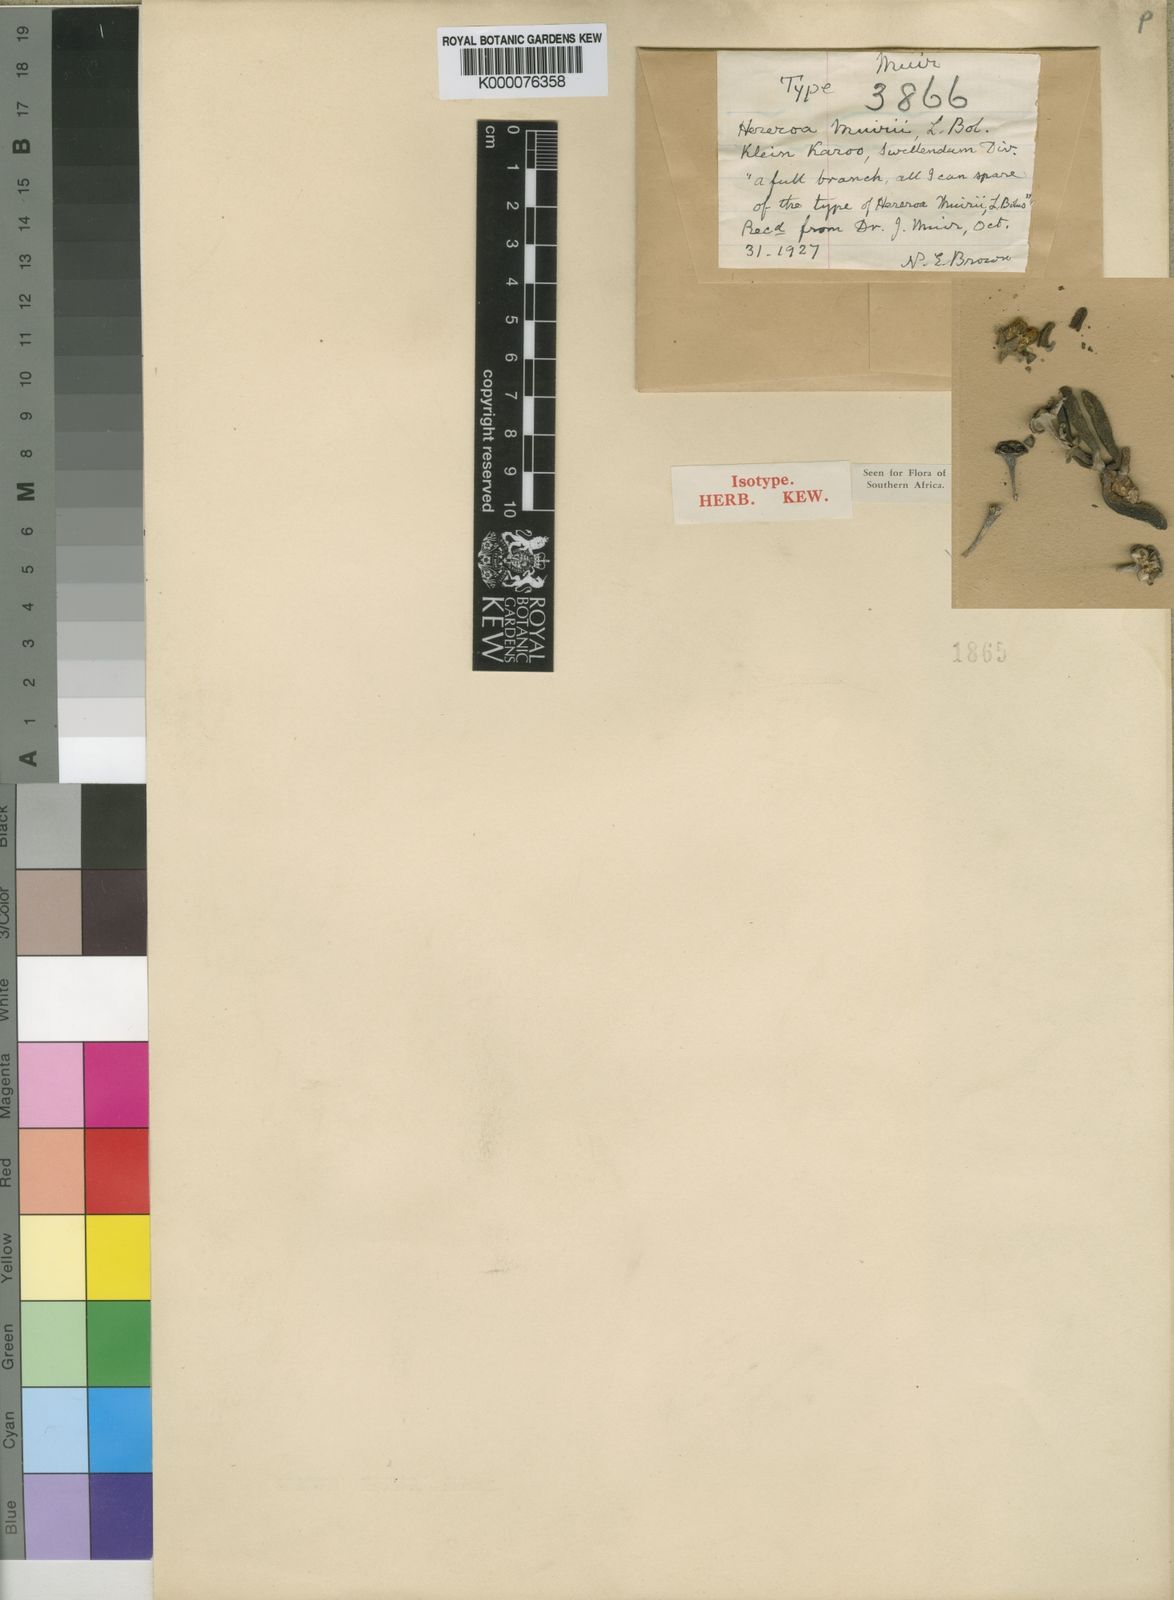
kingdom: Plantae
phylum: Tracheophyta
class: Magnoliopsida
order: Caryophyllales
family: Aizoaceae
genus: Dracophilus
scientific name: Dracophilus Hereroa muirii
